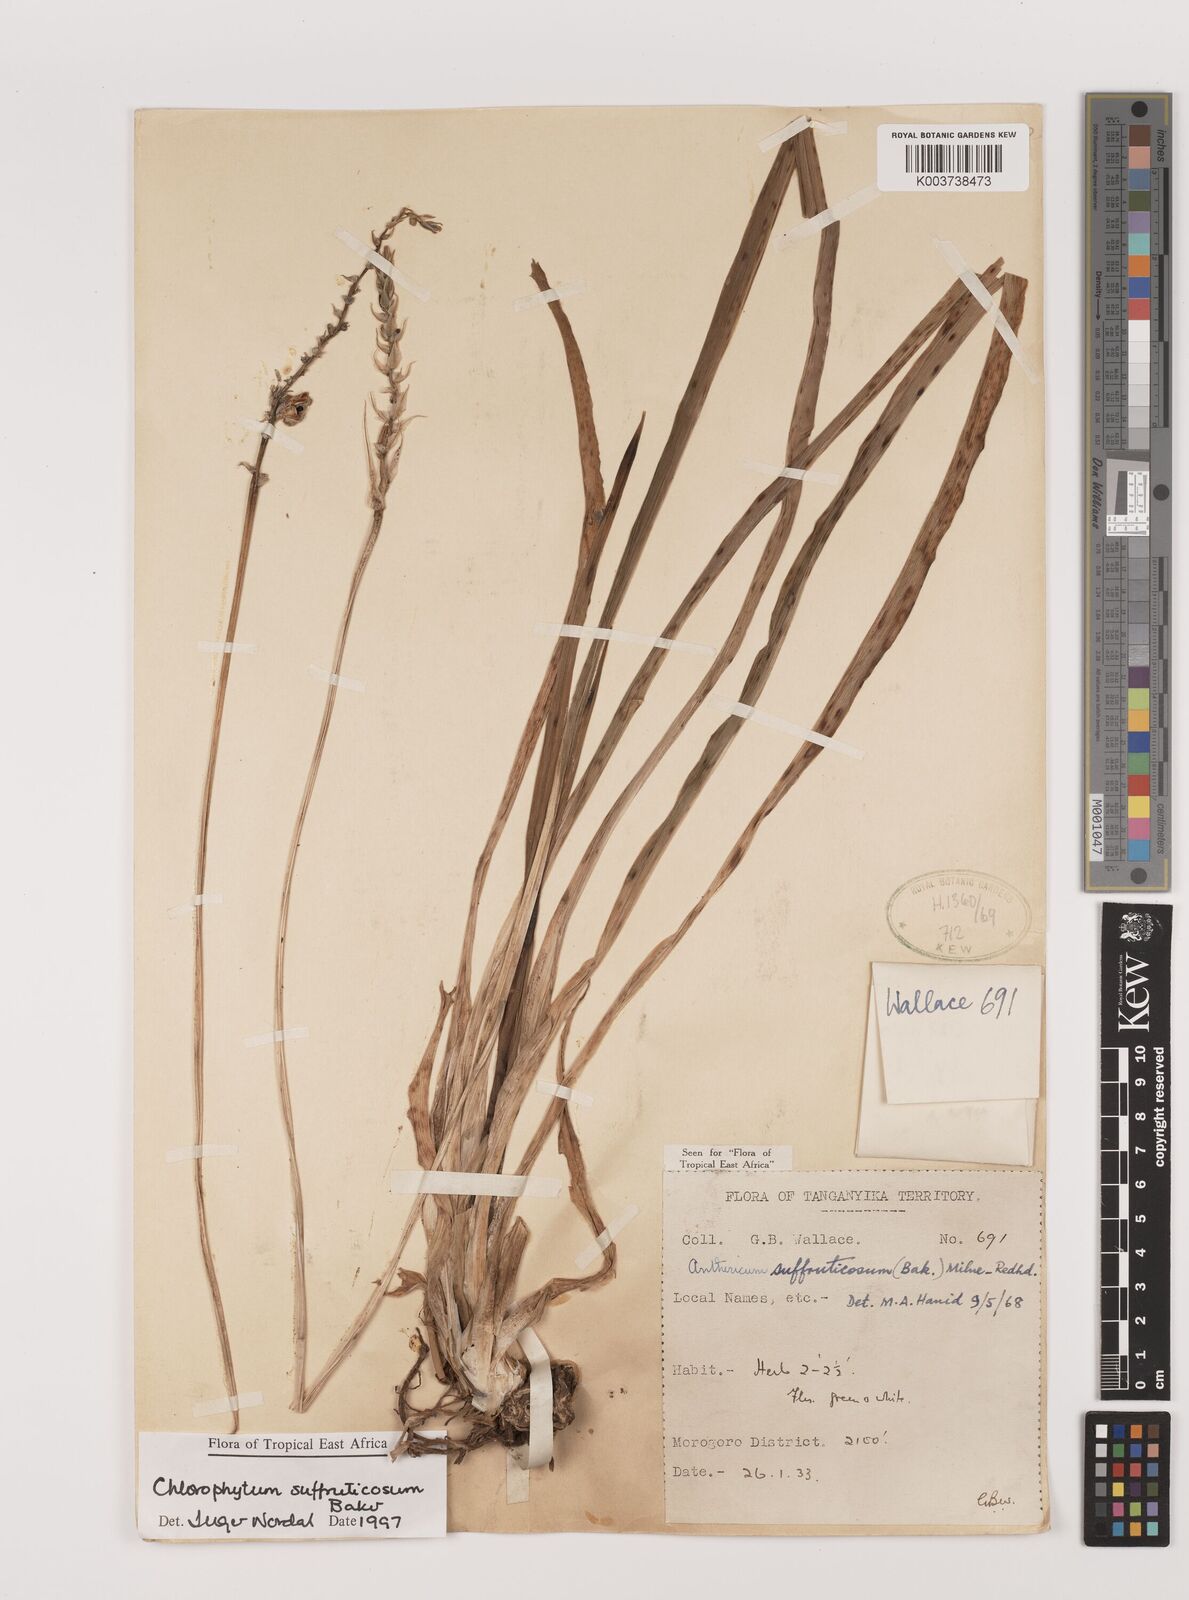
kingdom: Plantae
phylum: Tracheophyta
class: Liliopsida
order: Asparagales
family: Asparagaceae
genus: Chlorophytum
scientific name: Chlorophytum suffruticosum
